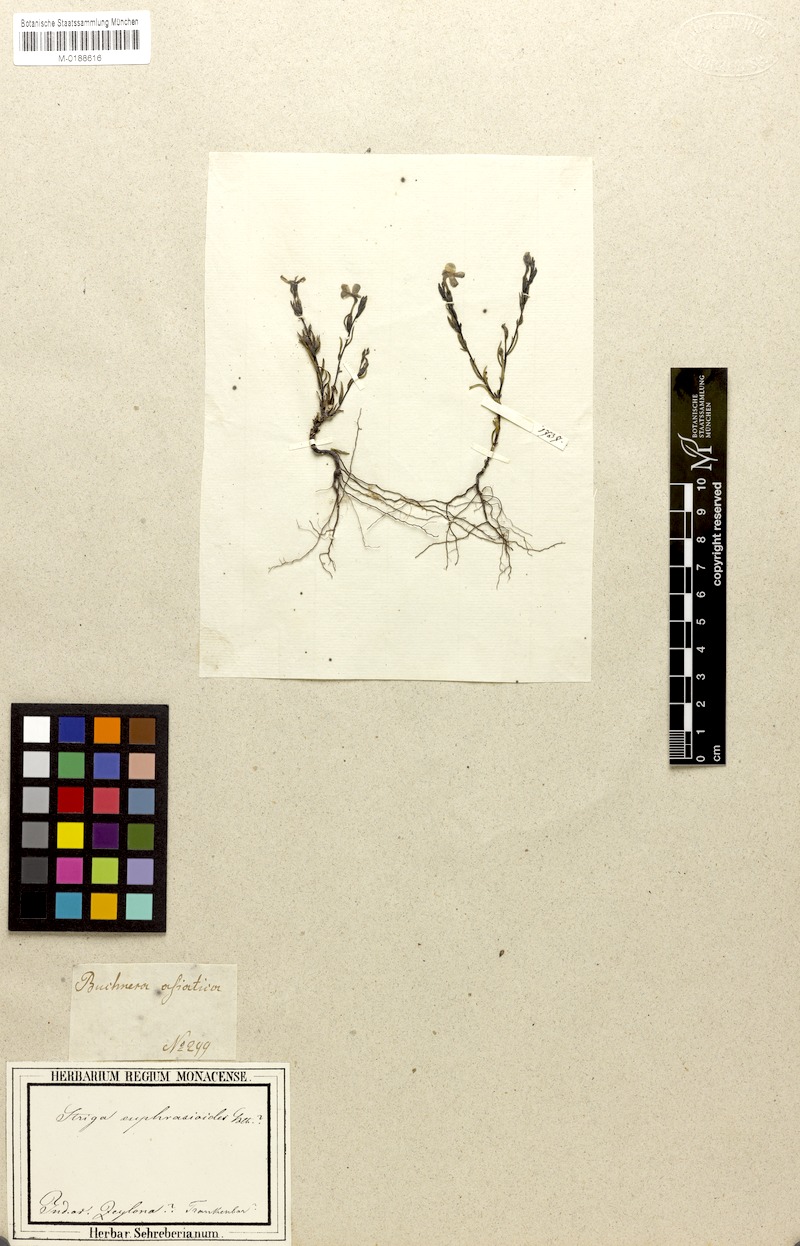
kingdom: Plantae
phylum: Tracheophyta
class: Magnoliopsida
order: Lamiales
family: Orobanchaceae
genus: Striga
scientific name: Striga angustifolia
